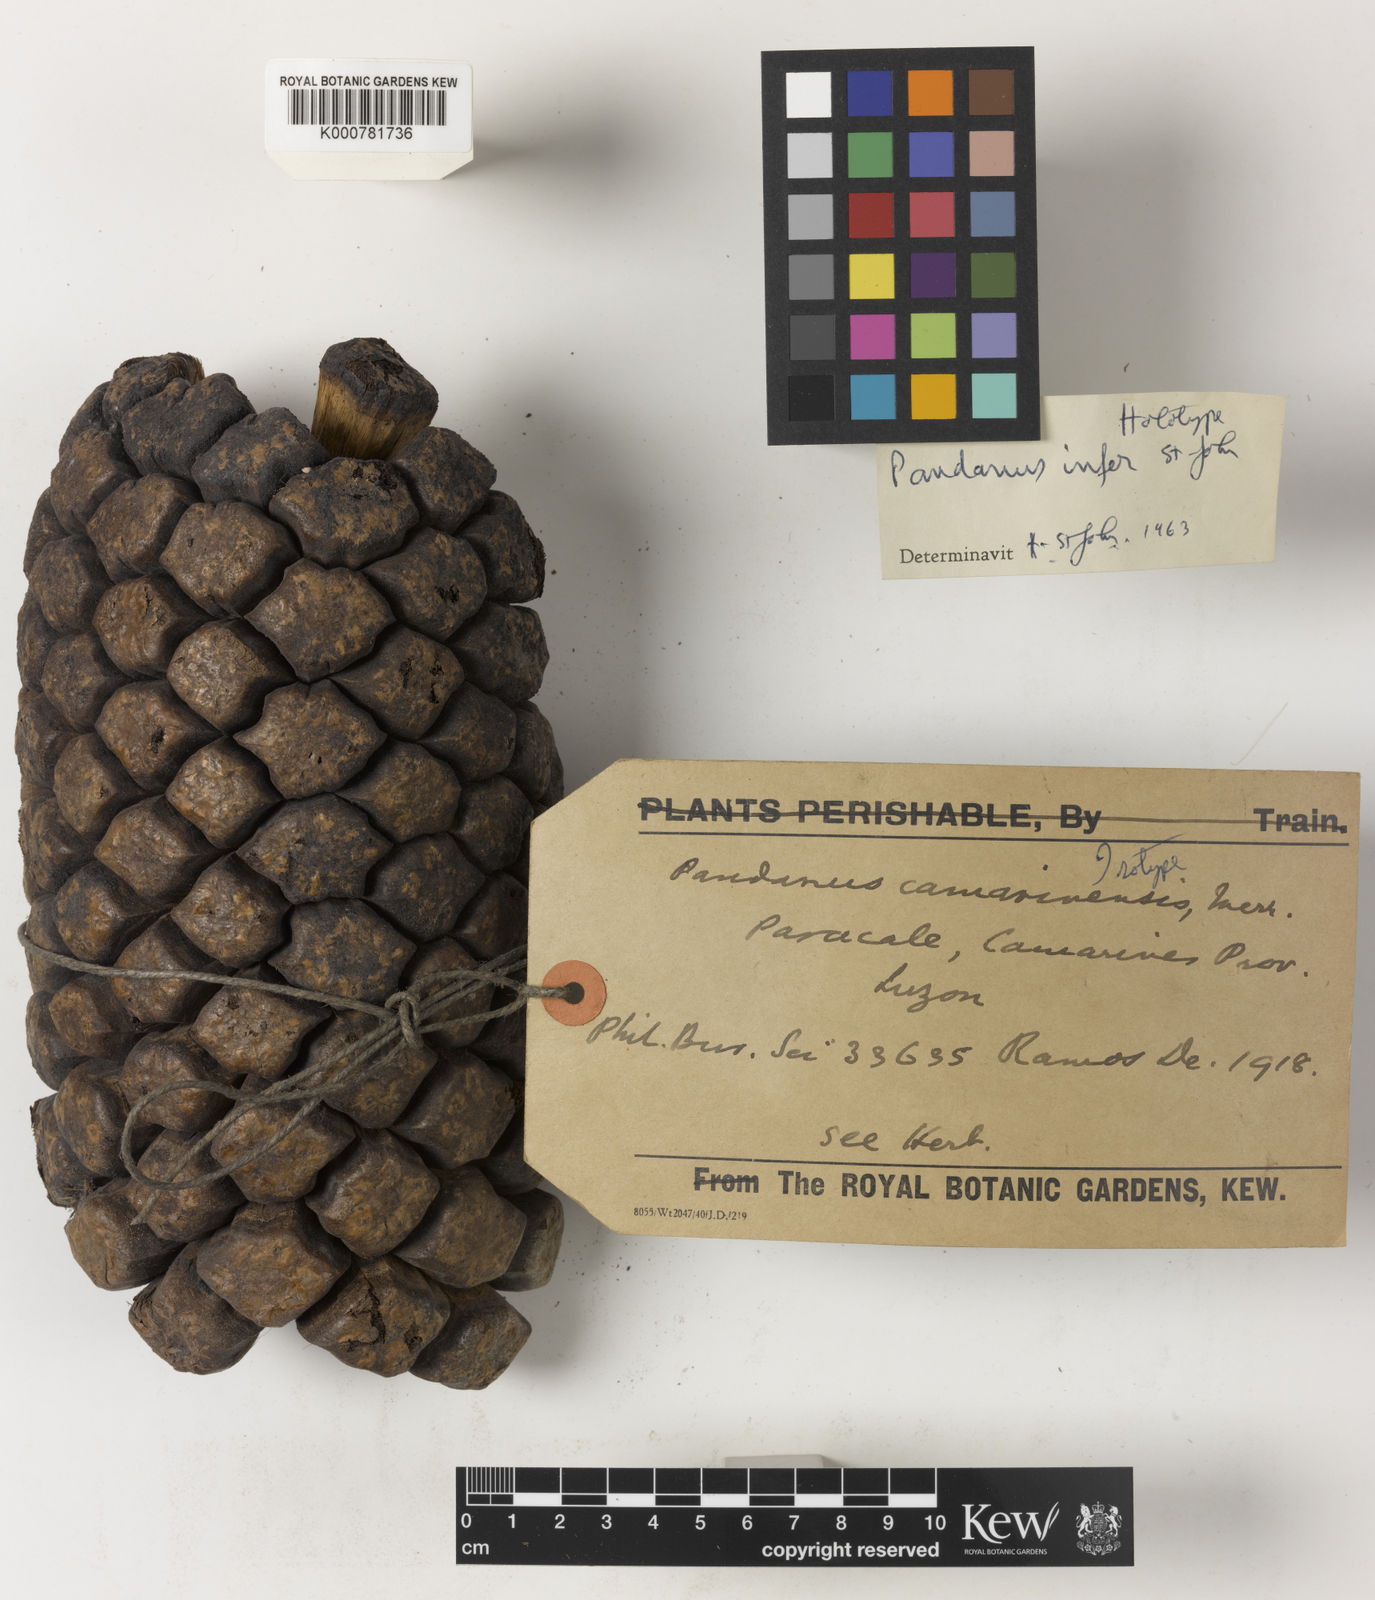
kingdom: Plantae
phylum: Tracheophyta
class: Liliopsida
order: Pandanales
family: Pandanaceae
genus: Pandanus
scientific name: Pandanus
